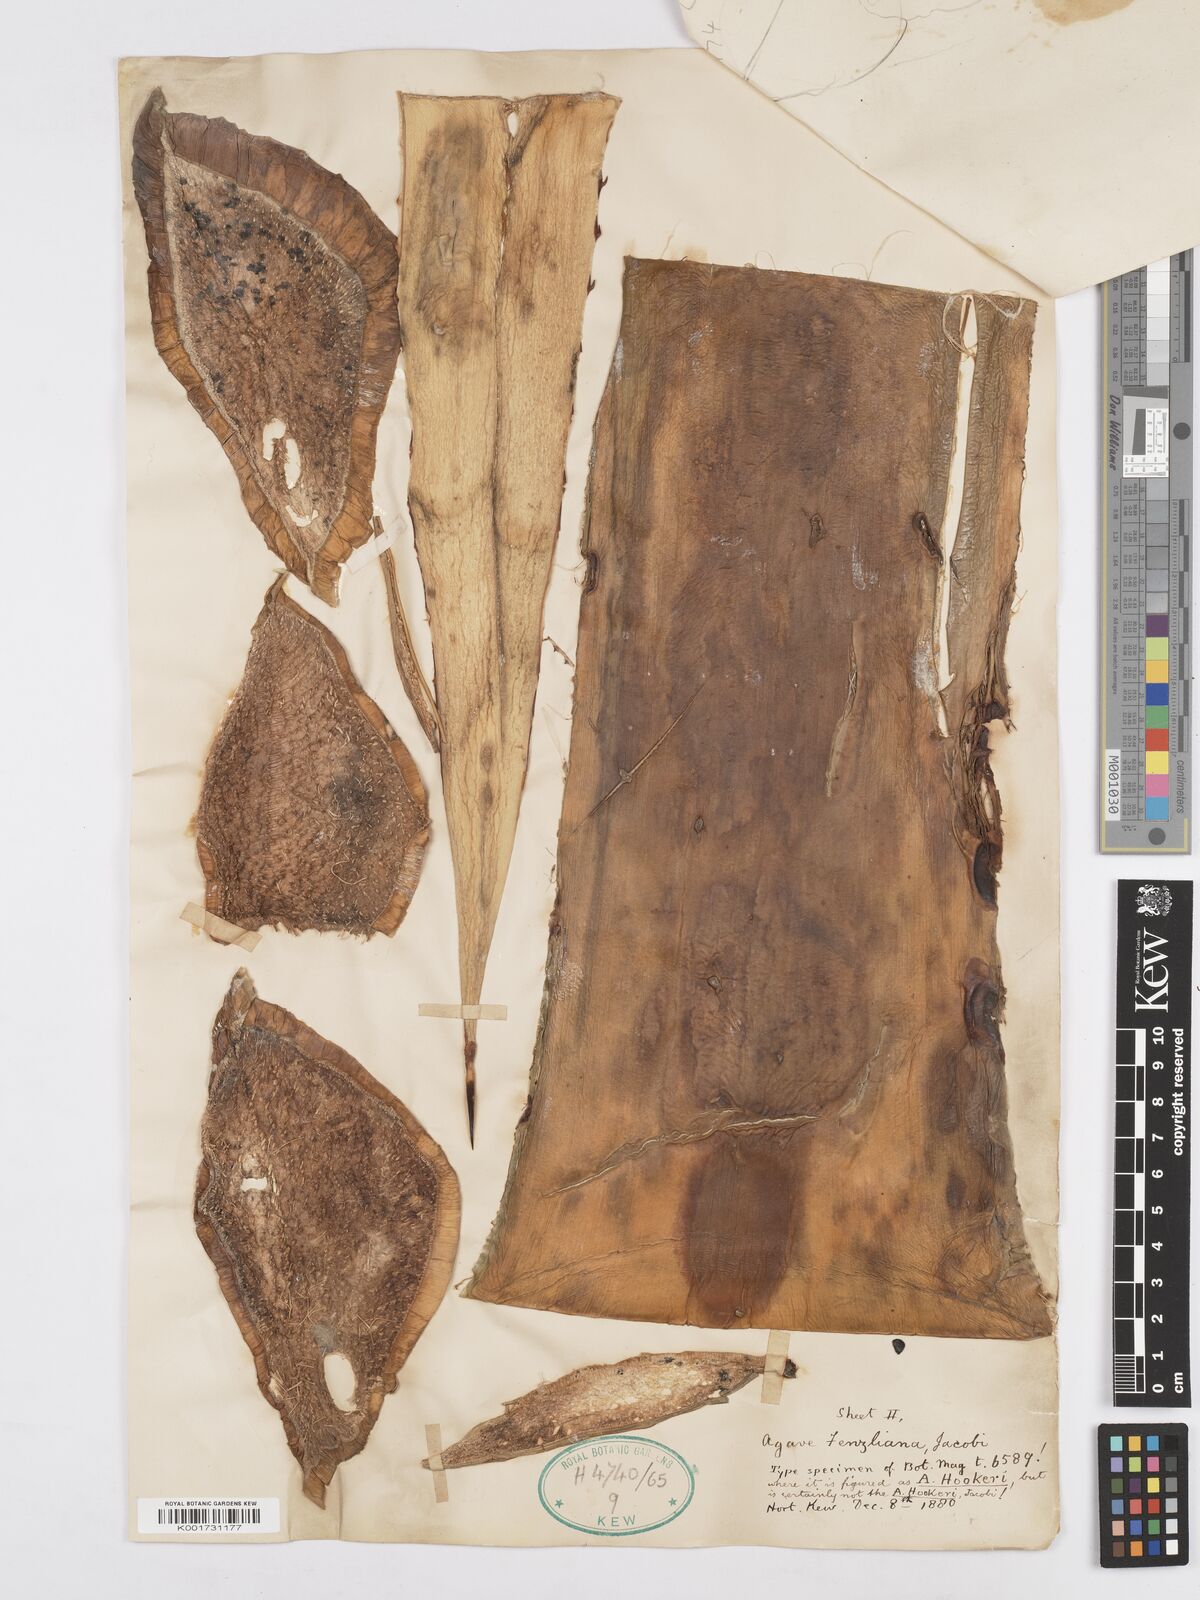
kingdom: Plantae
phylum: Tracheophyta
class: Liliopsida
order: Asparagales
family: Asparagaceae
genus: Agave
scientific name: Agave inaequidens
